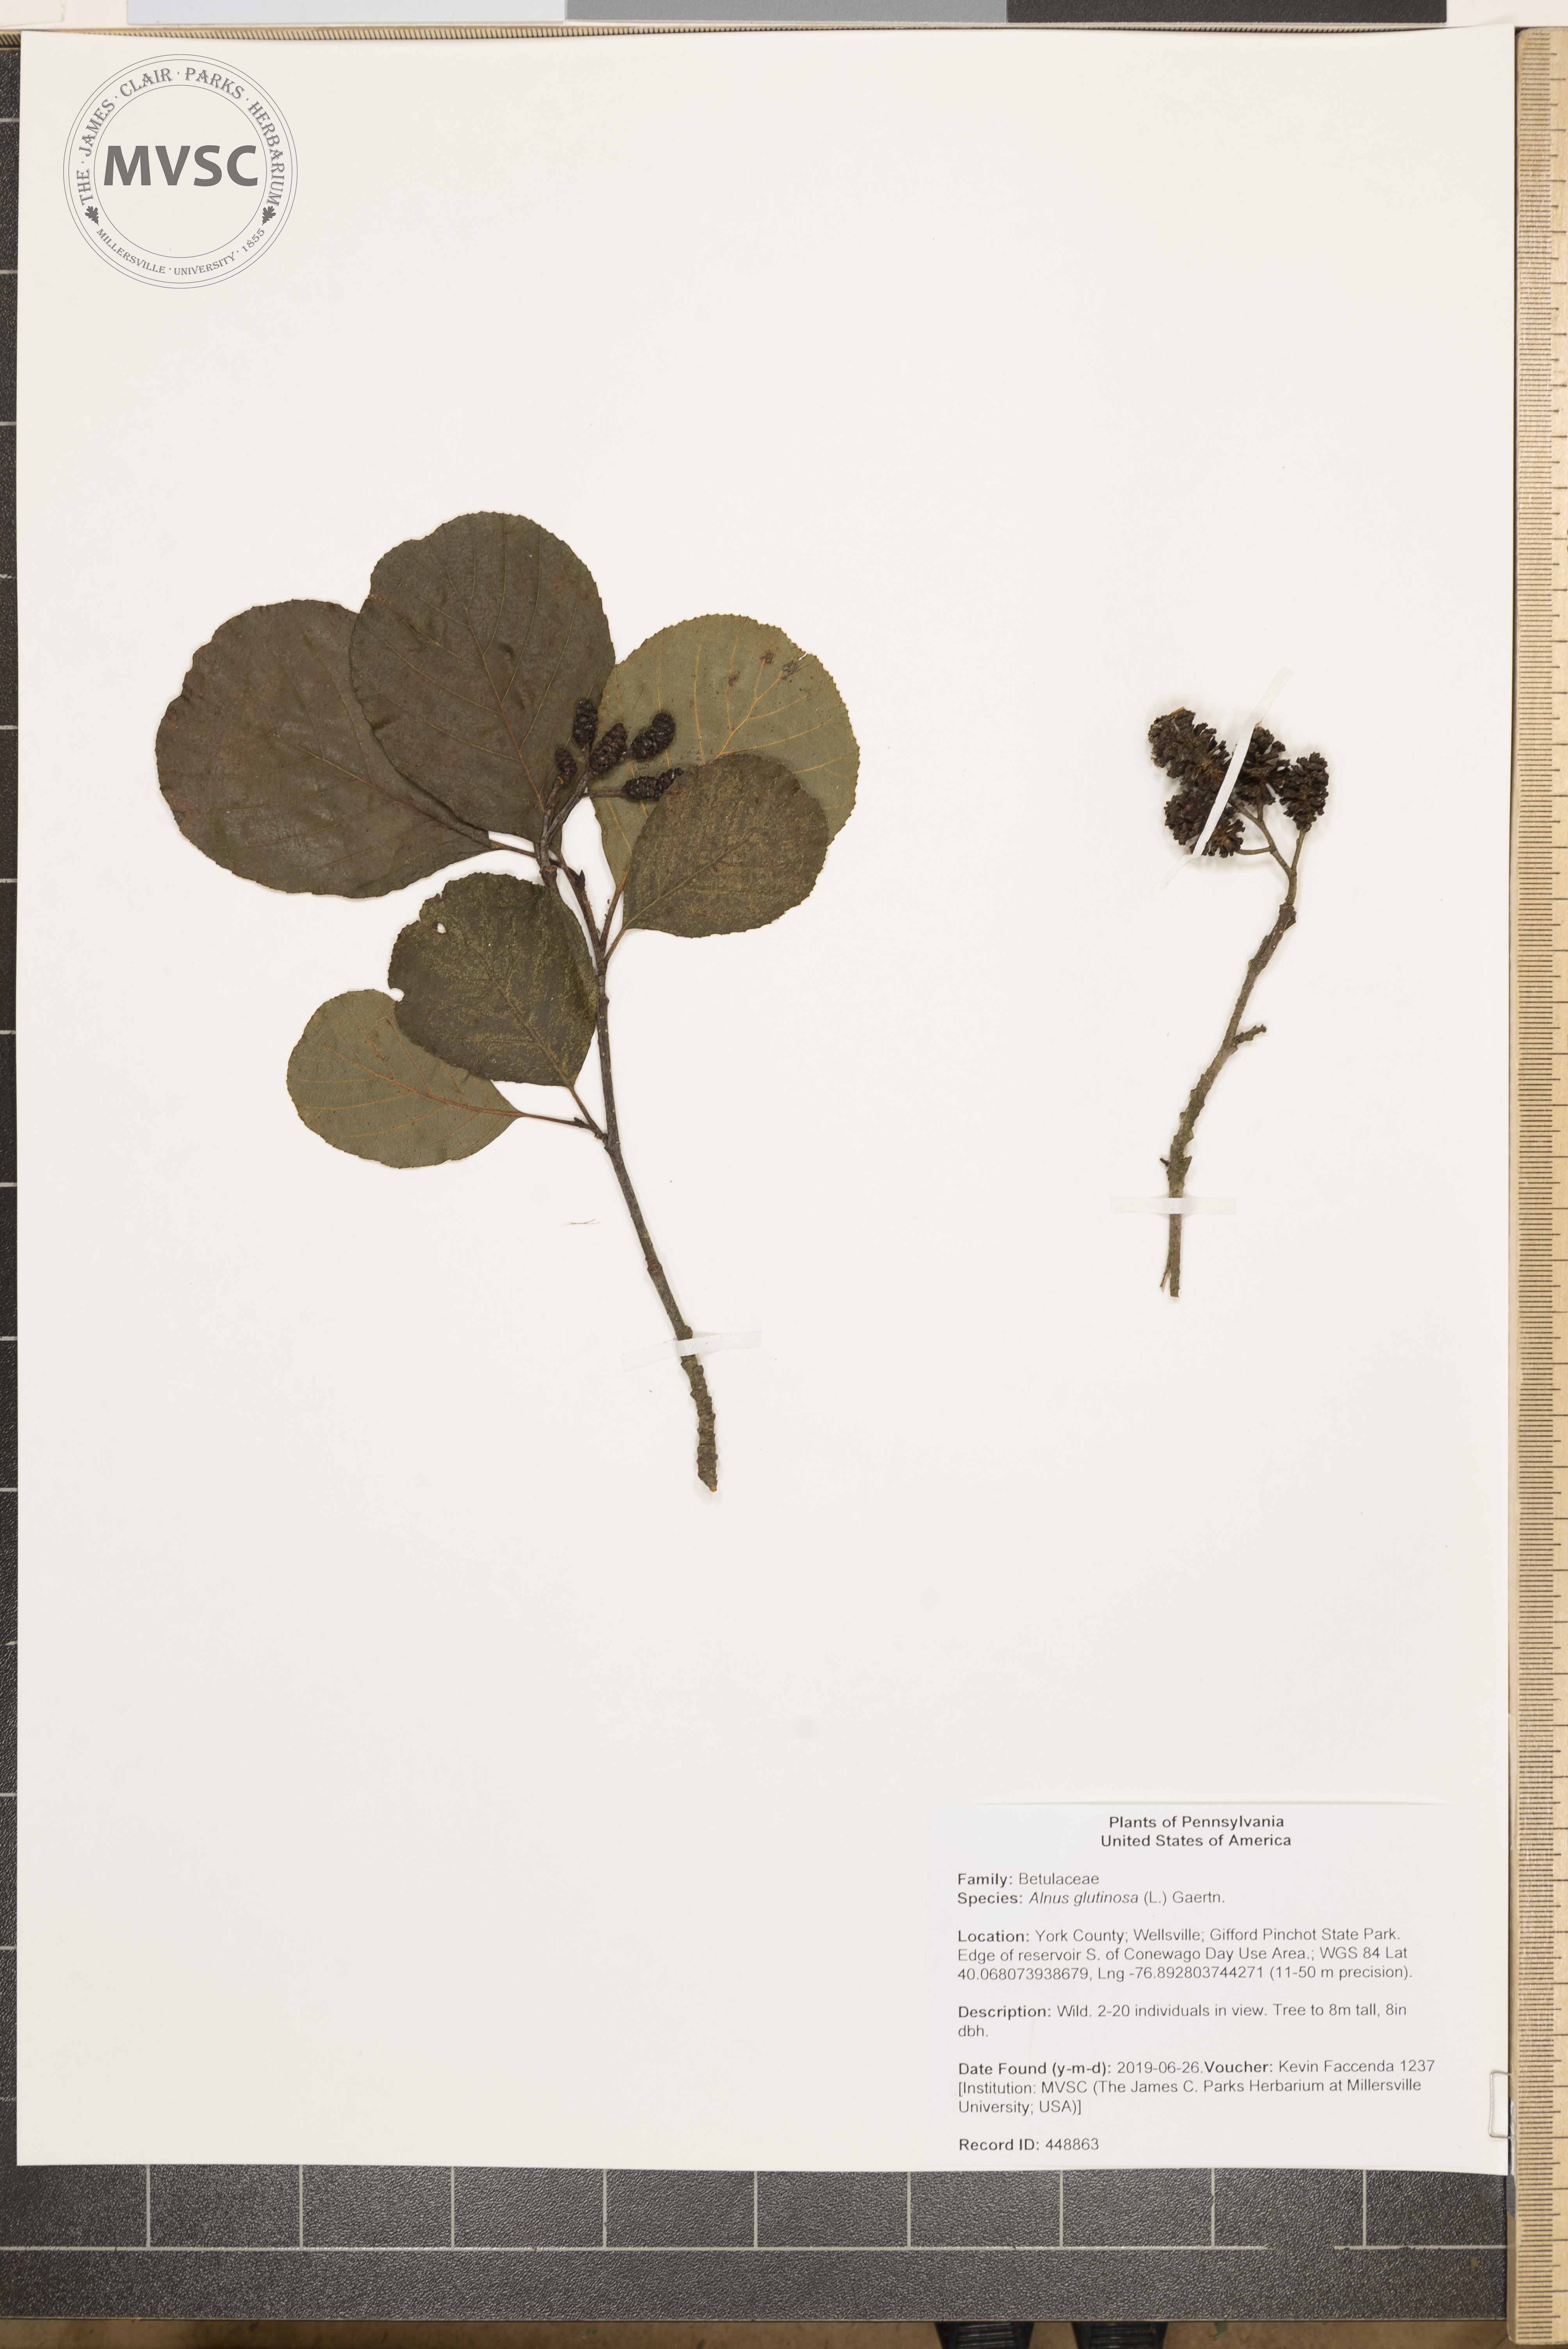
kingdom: Plantae
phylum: Tracheophyta
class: Magnoliopsida
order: Fagales
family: Betulaceae
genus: Alnus
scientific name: Alnus glutinosa
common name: Black alder
